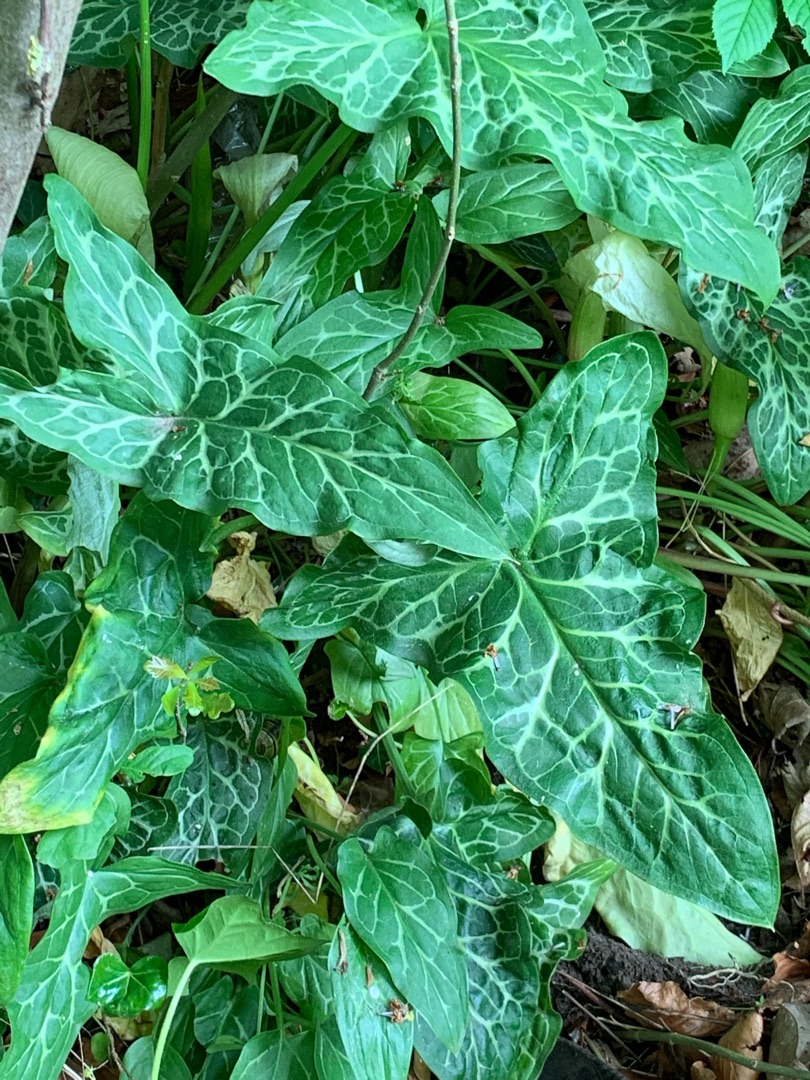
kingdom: Plantae
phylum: Tracheophyta
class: Liliopsida
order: Alismatales
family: Araceae
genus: Arum
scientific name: Arum italicum
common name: Italiensk arum
